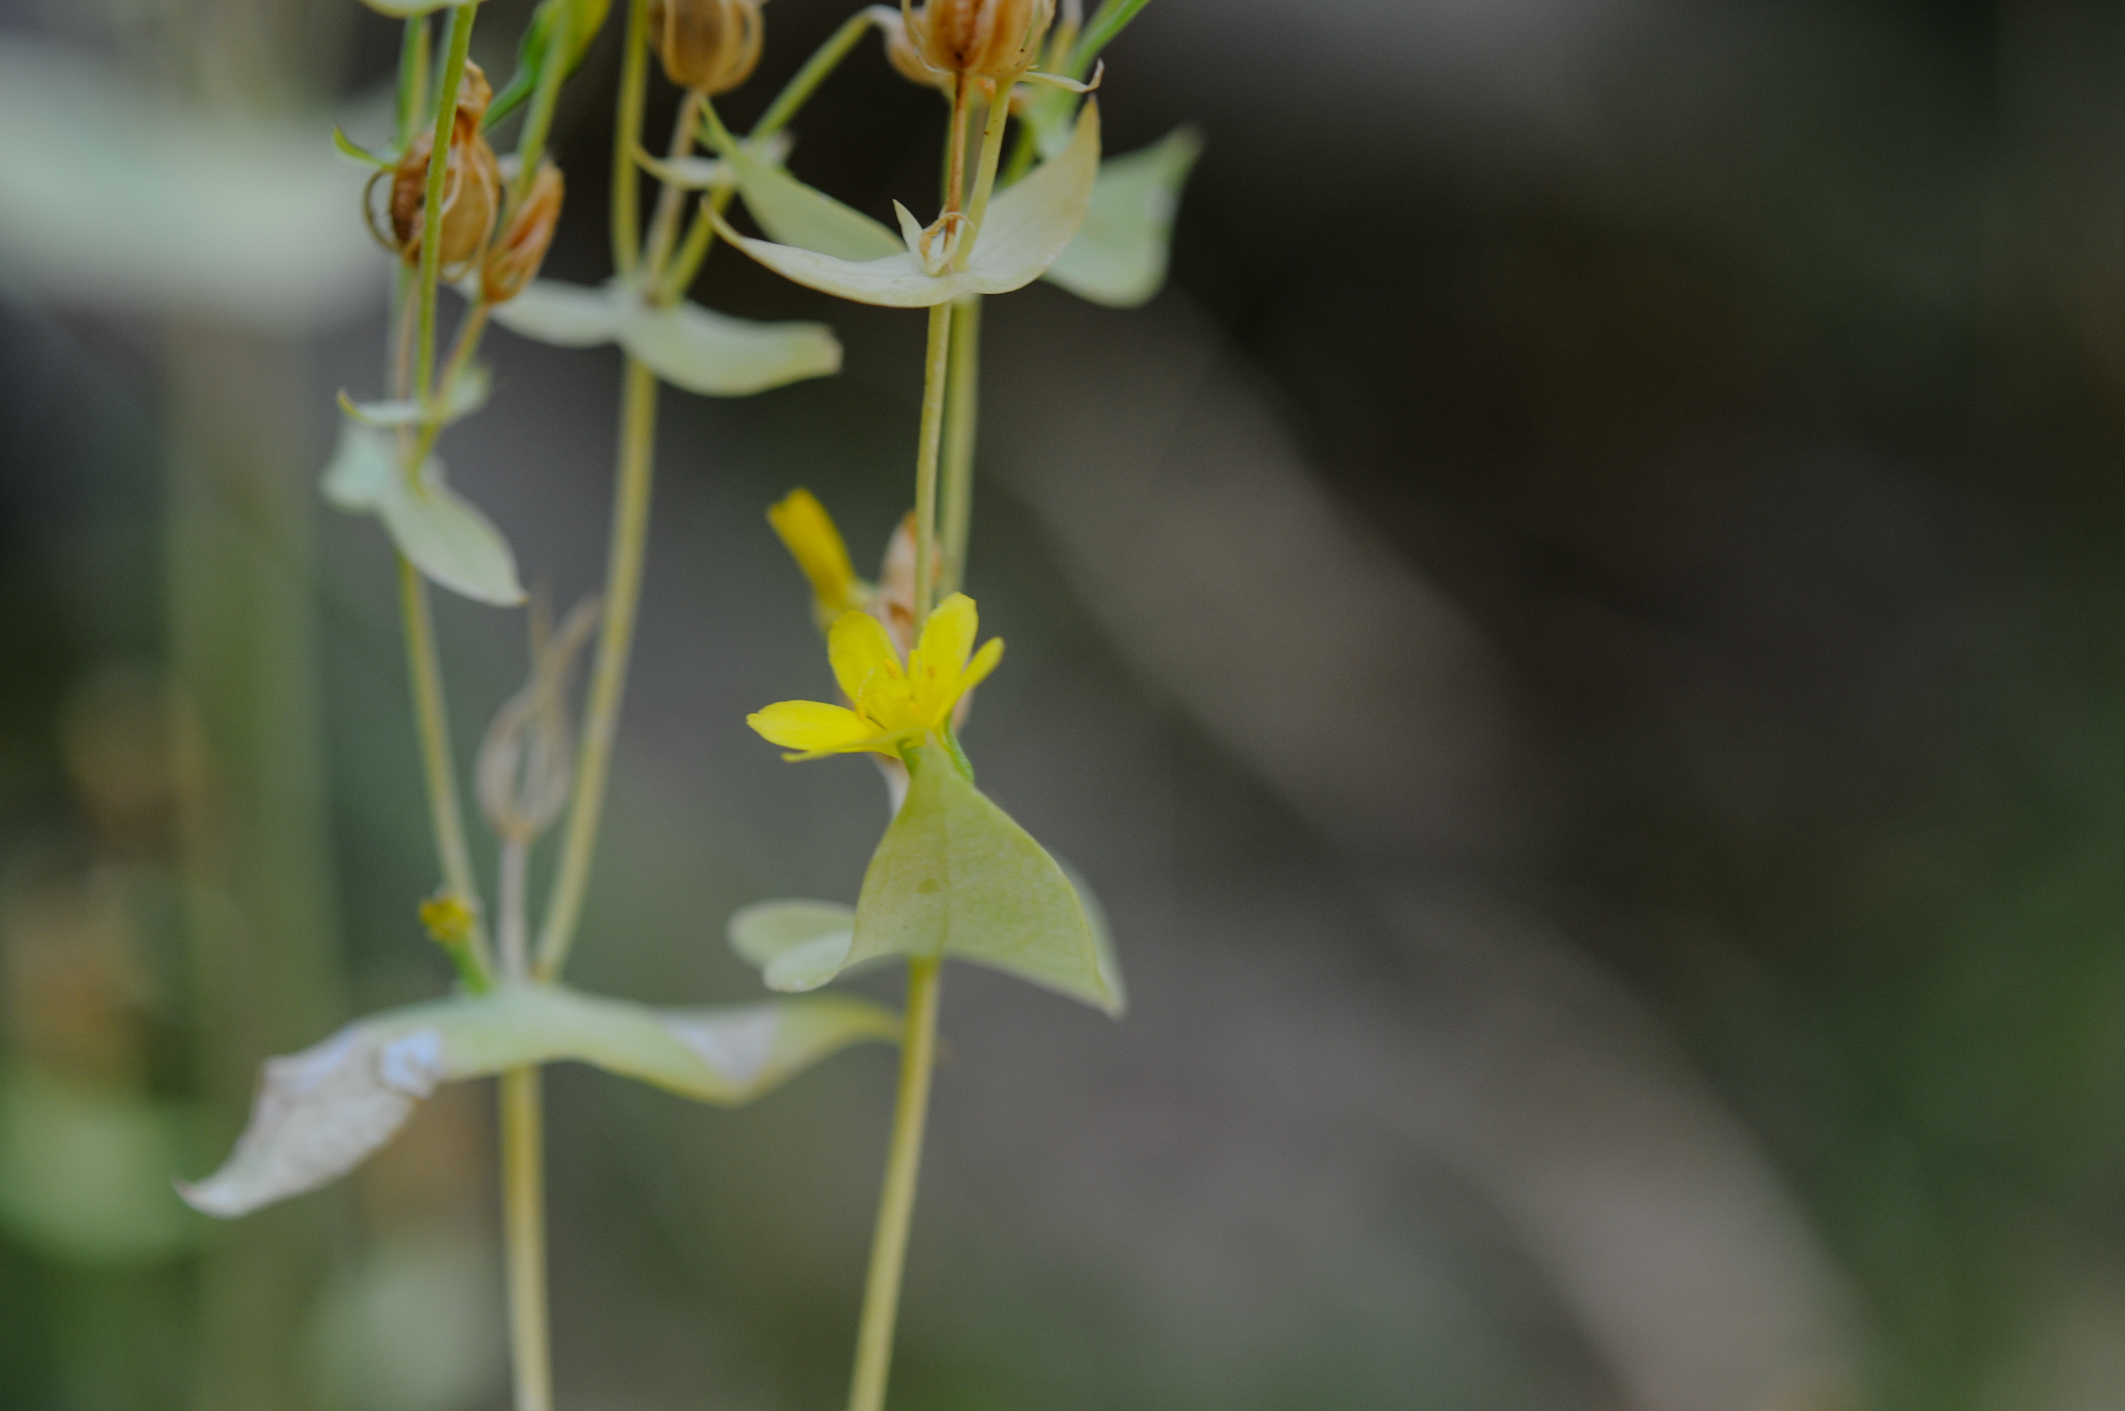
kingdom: Plantae
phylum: Tracheophyta
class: Magnoliopsida
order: Gentianales
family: Gentianaceae
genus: Blackstonia
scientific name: Blackstonia perfoliata
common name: Yellow-wort
